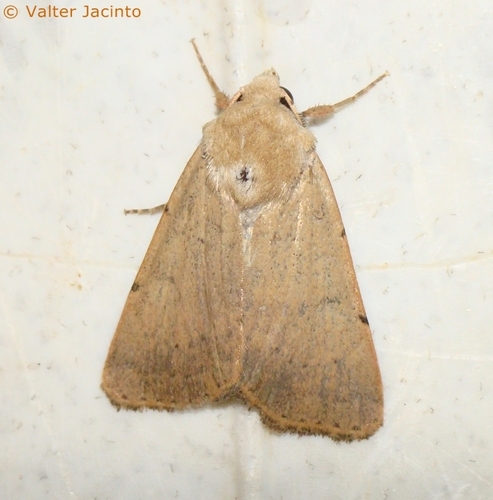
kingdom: Animalia
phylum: Arthropoda
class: Insecta
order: Lepidoptera
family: Noctuidae
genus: Xestia
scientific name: Xestia kermesina
